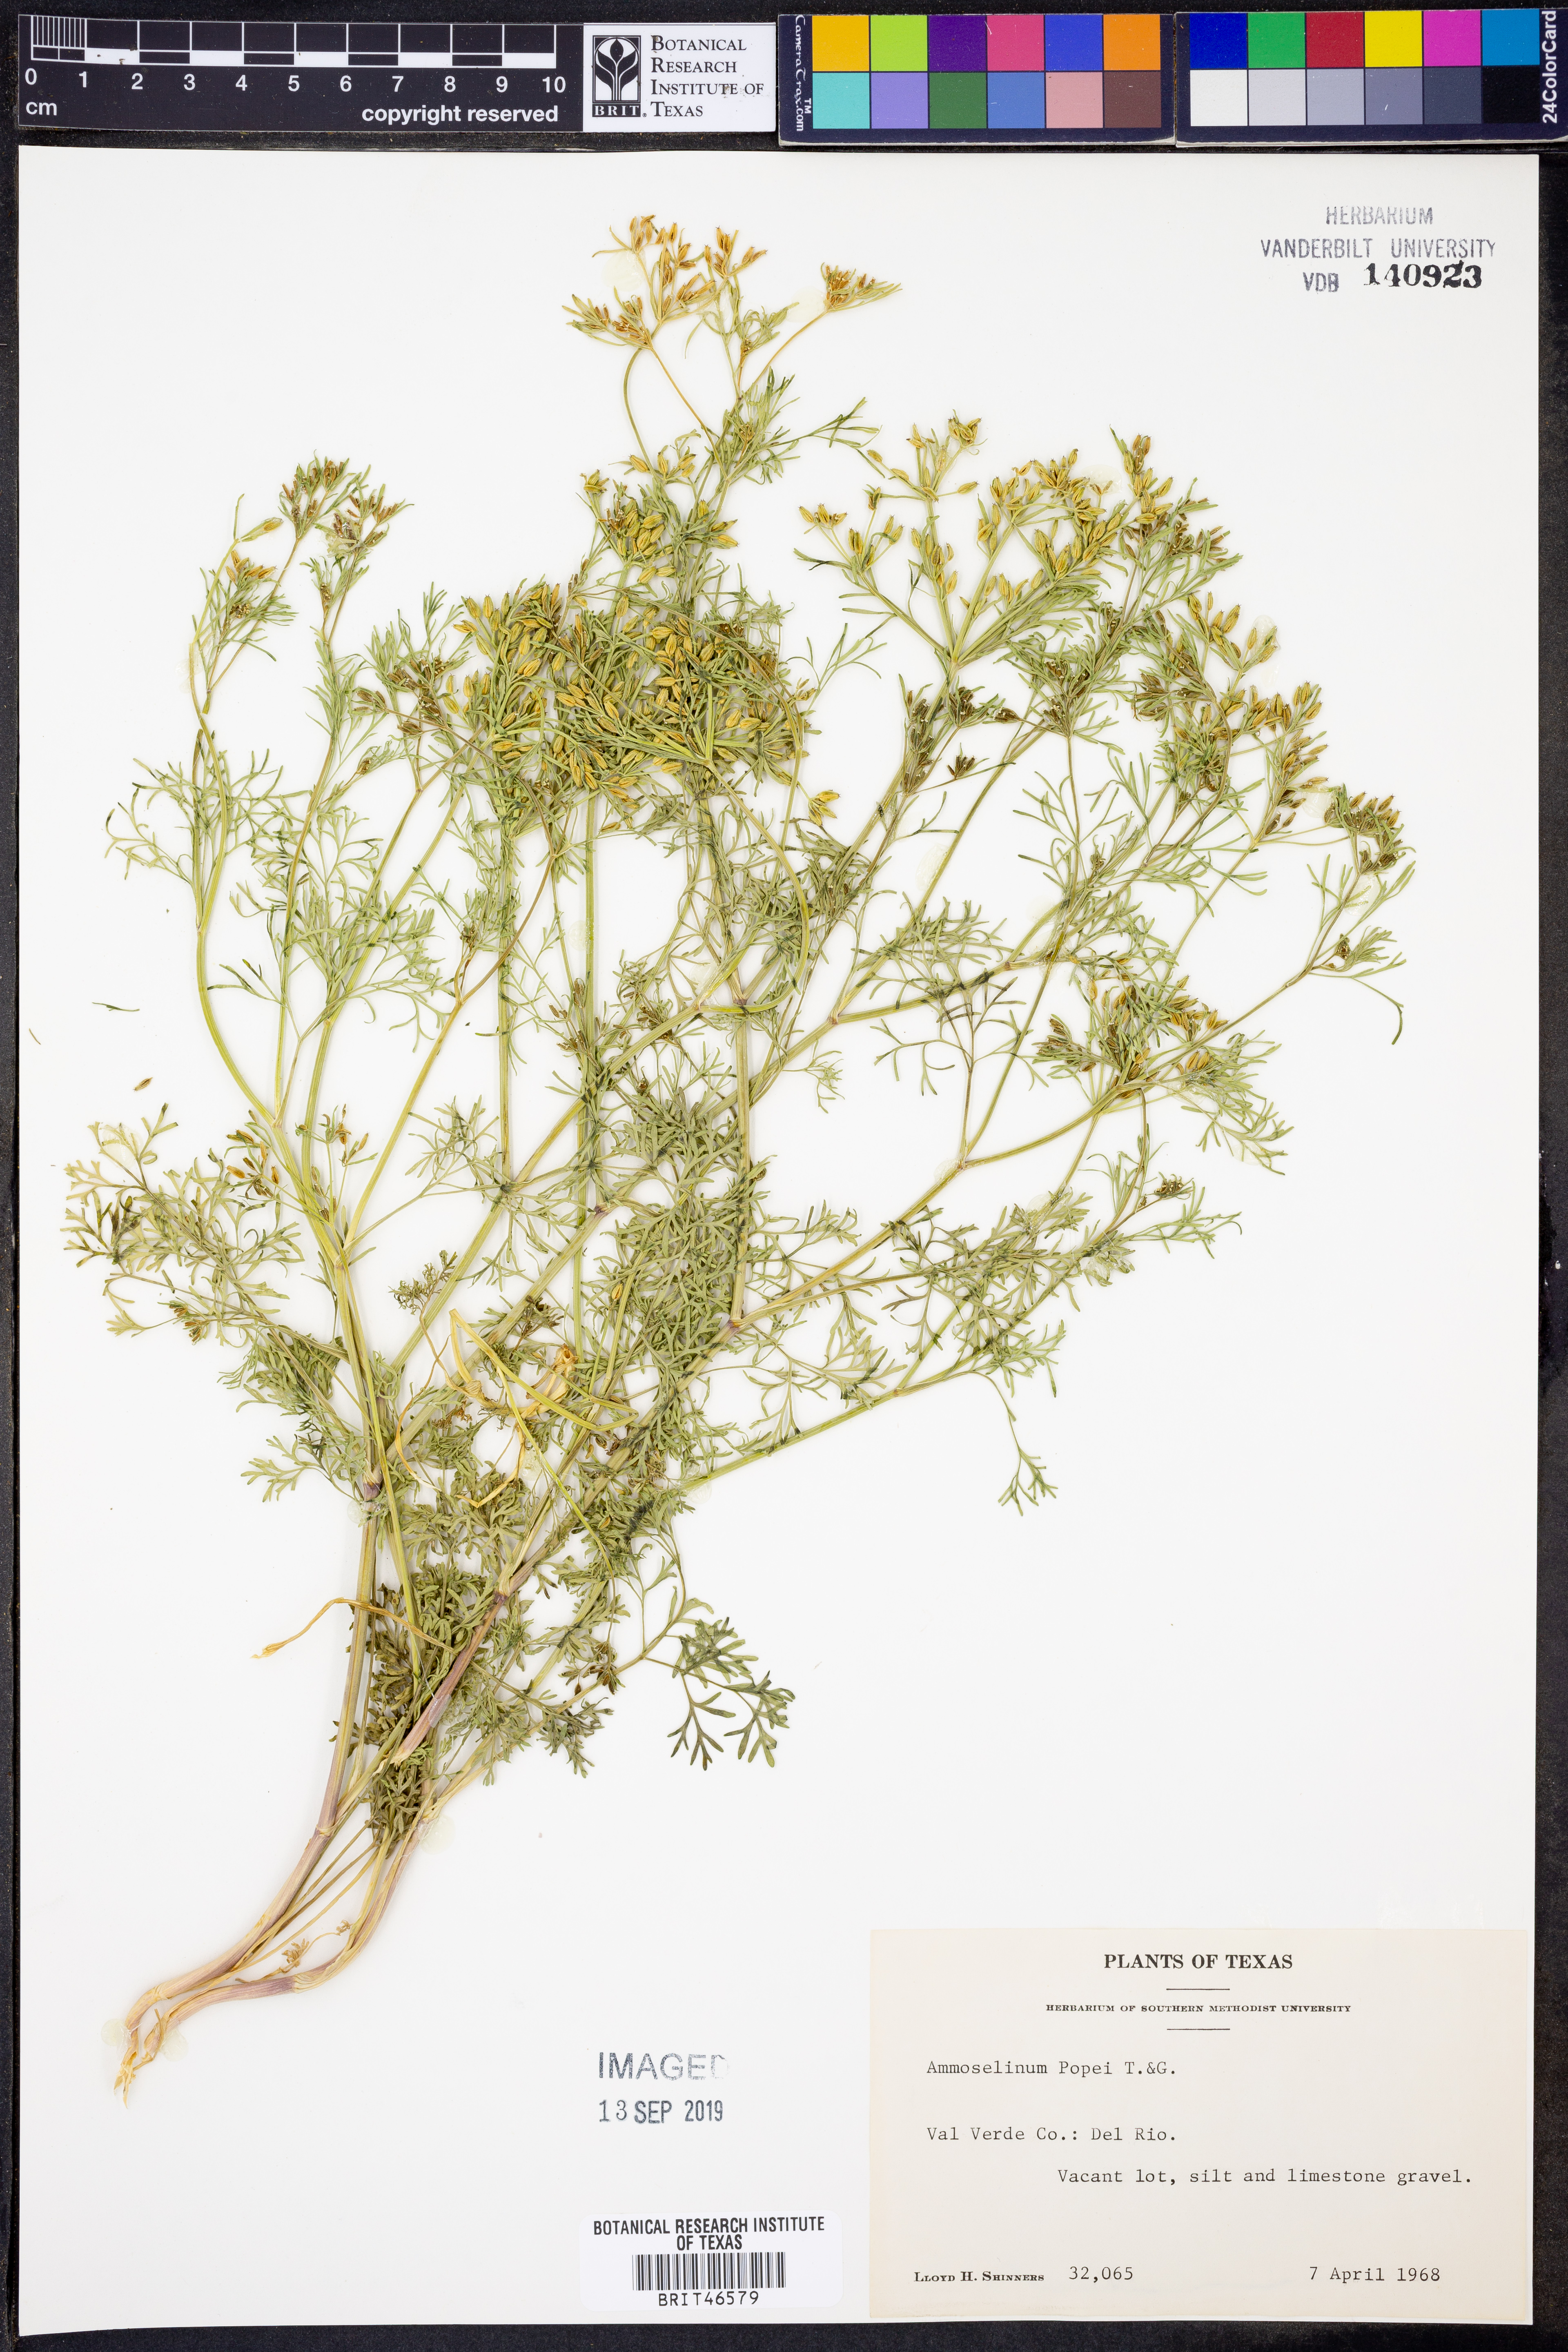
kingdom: Plantae
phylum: Tracheophyta
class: Magnoliopsida
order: Apiales
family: Apiaceae
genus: Ammoselinum
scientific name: Ammoselinum popei
